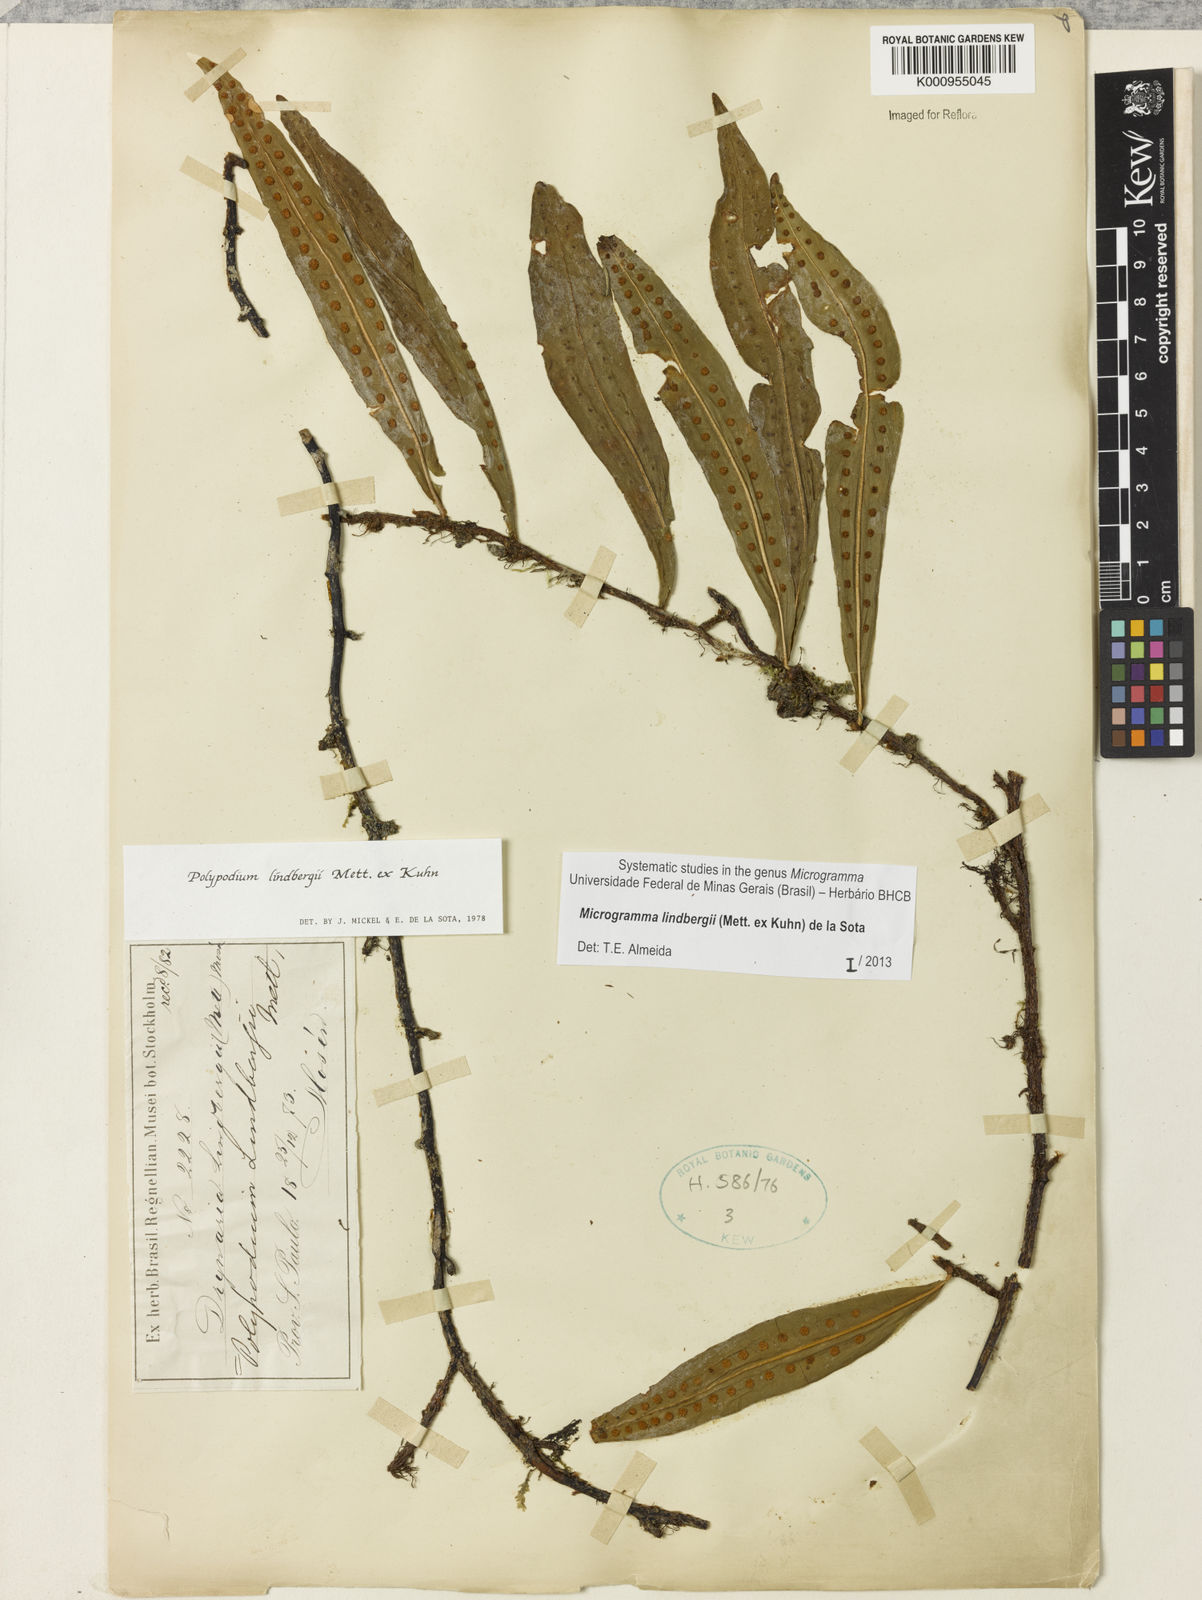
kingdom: Plantae
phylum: Tracheophyta
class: Polypodiopsida
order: Polypodiales
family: Polypodiaceae
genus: Microgramma
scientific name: Microgramma
